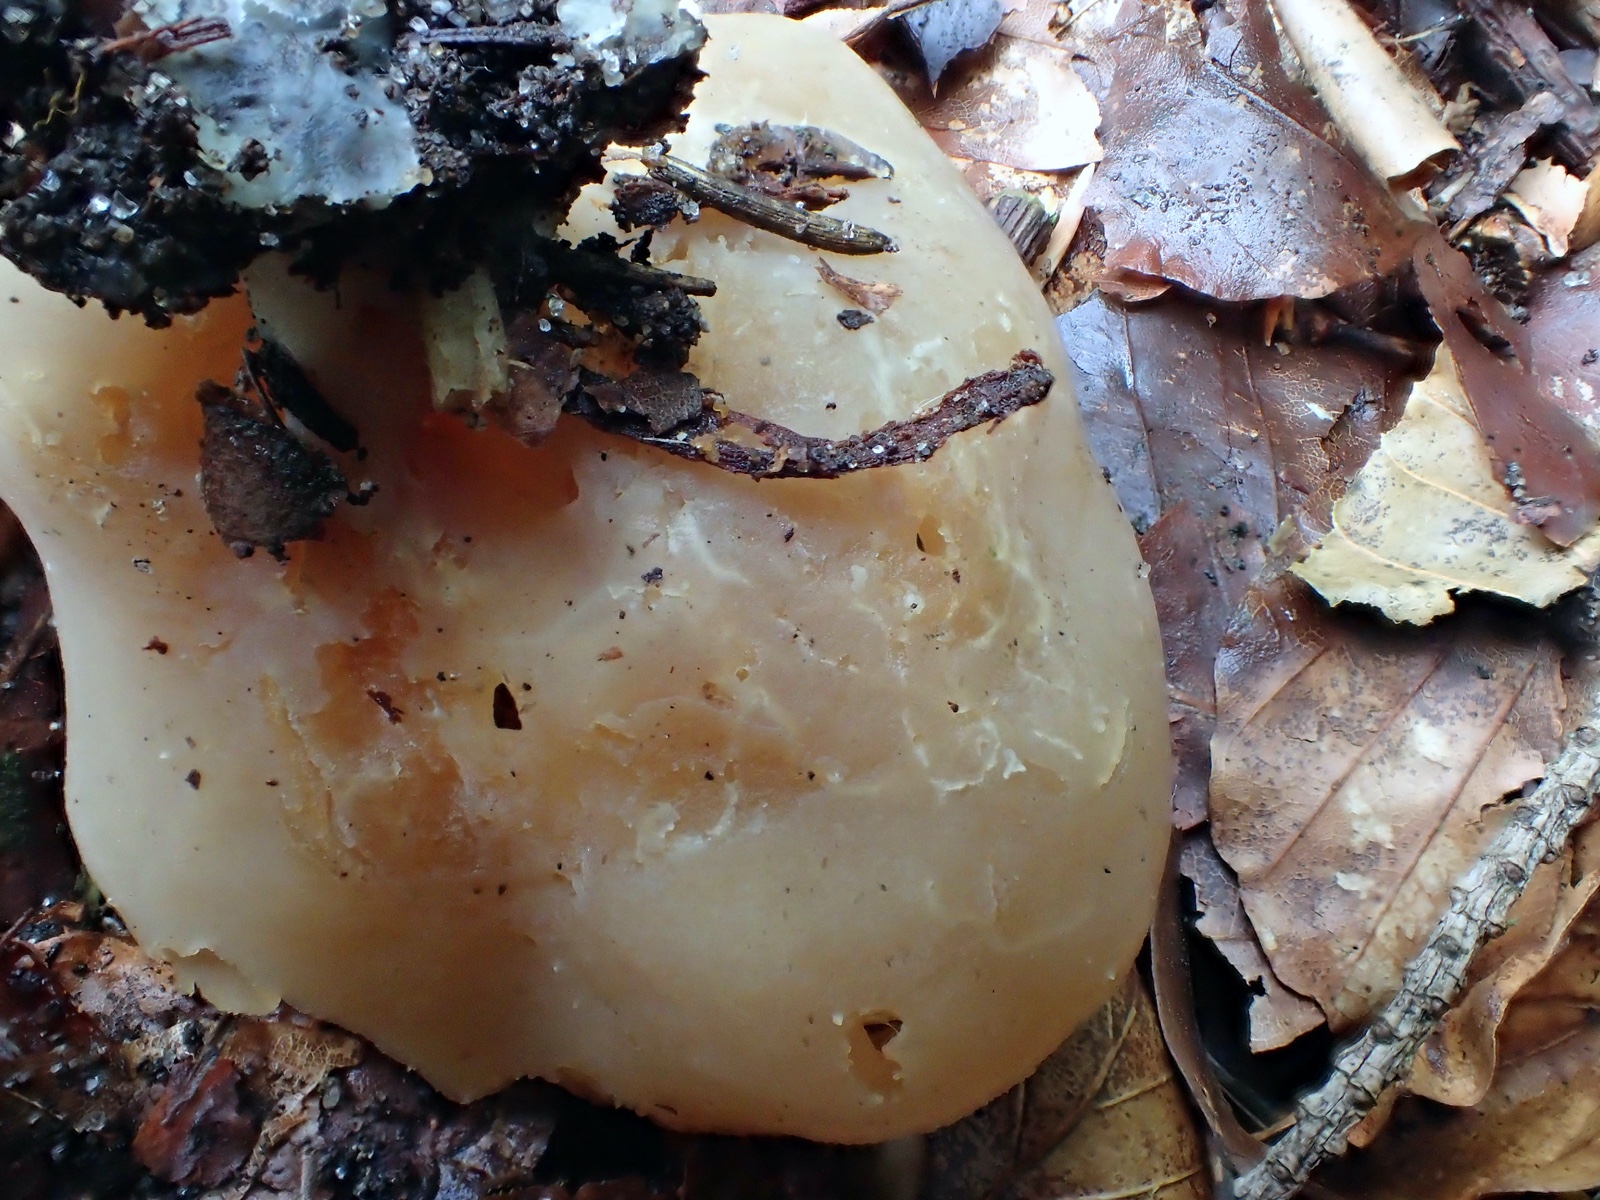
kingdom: Fungi
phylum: Ascomycota
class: Pezizomycetes
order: Pezizales
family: Pezizaceae
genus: Peziza
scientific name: Peziza arvernensis
